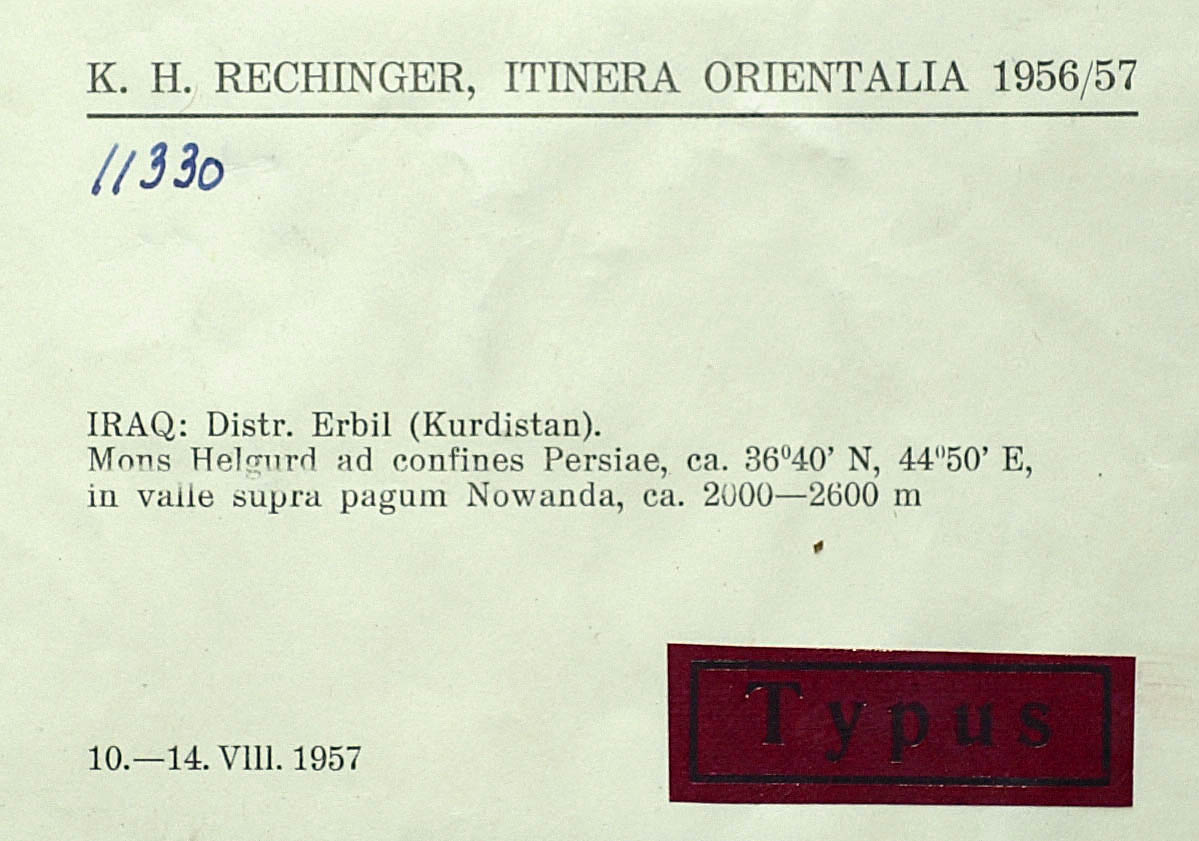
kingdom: Plantae
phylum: Tracheophyta
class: Magnoliopsida
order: Asterales
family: Asteraceae
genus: Lophiolepis
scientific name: Lophiolepis karduchorum
